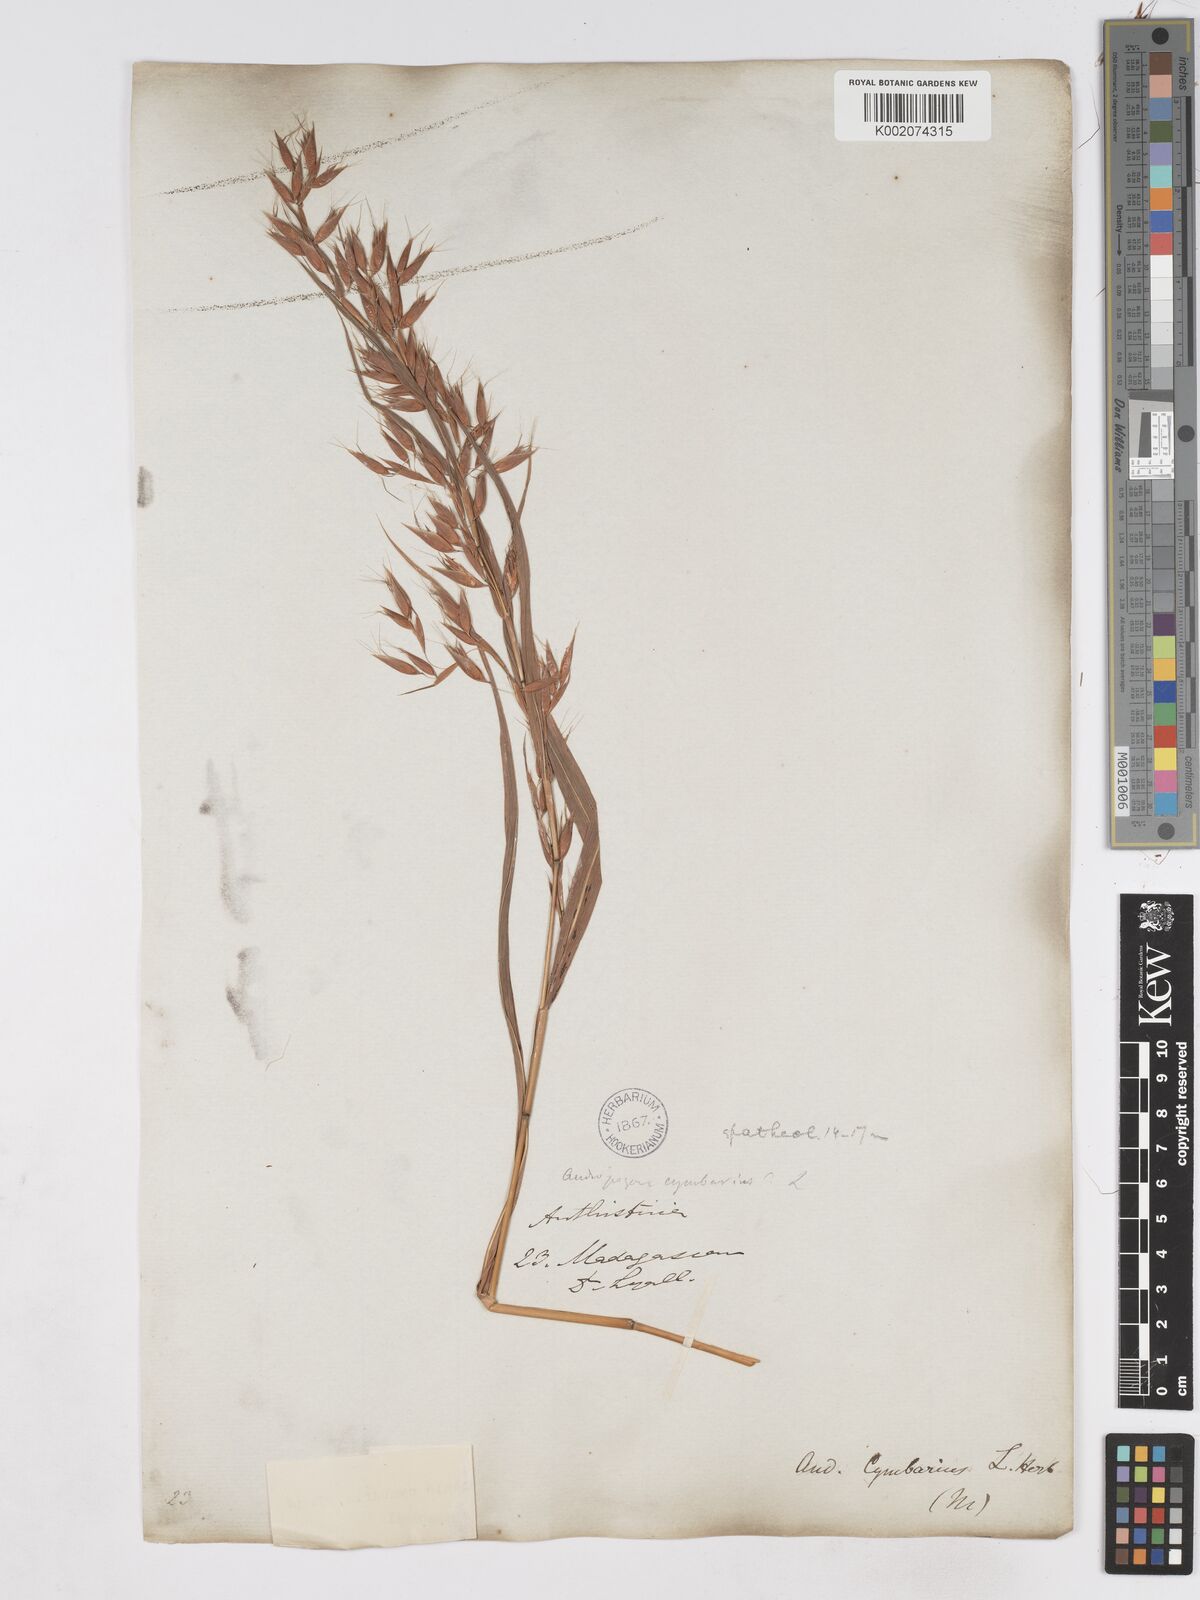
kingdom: Plantae
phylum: Tracheophyta
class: Liliopsida
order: Poales
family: Poaceae
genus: Hyparrhenia
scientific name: Hyparrhenia cymbaria
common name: Boat thatching grass
